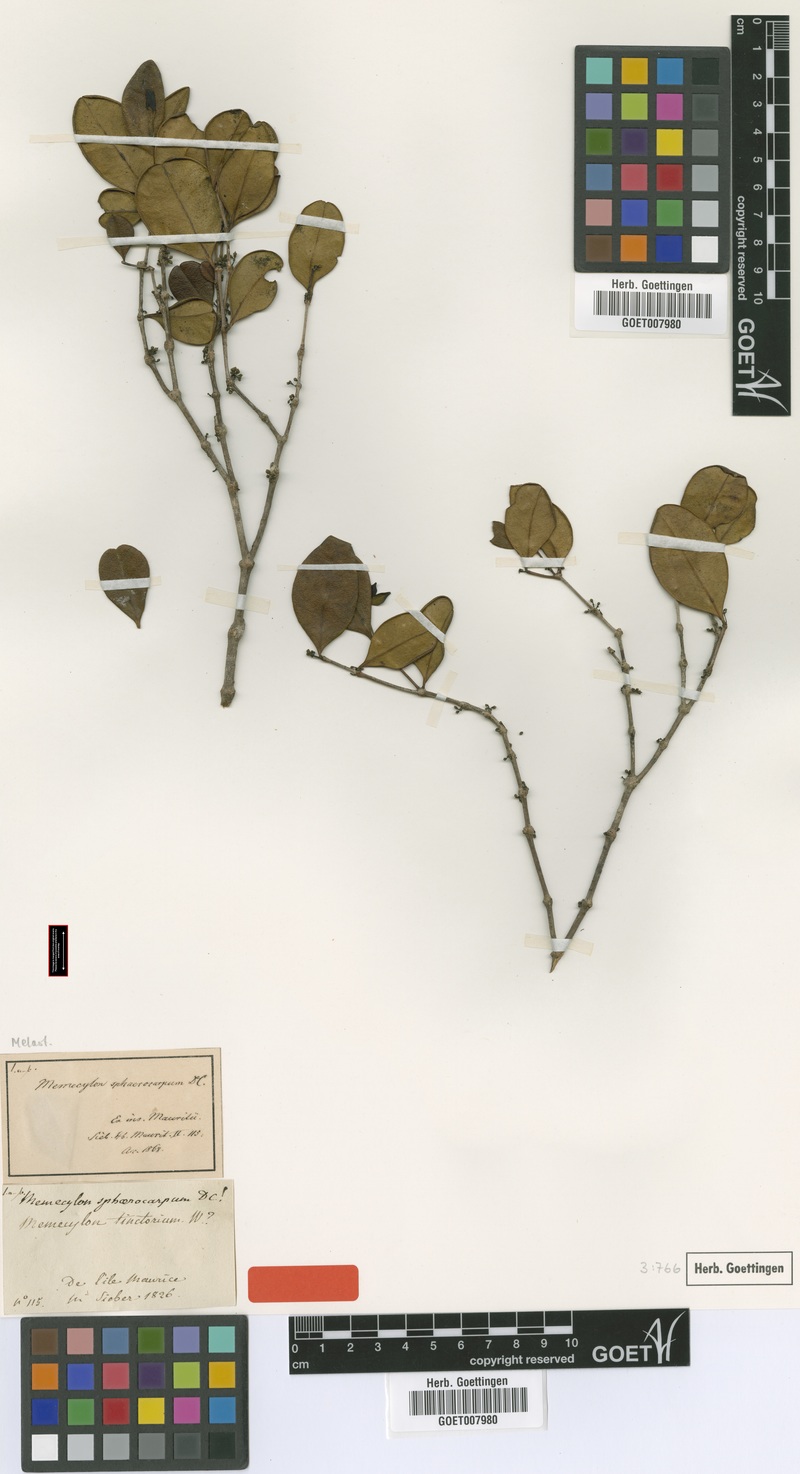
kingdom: Plantae
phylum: Tracheophyta
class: Magnoliopsida
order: Myrtales
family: Melastomataceae
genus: Memecylon
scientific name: Memecylon ovatifolium
